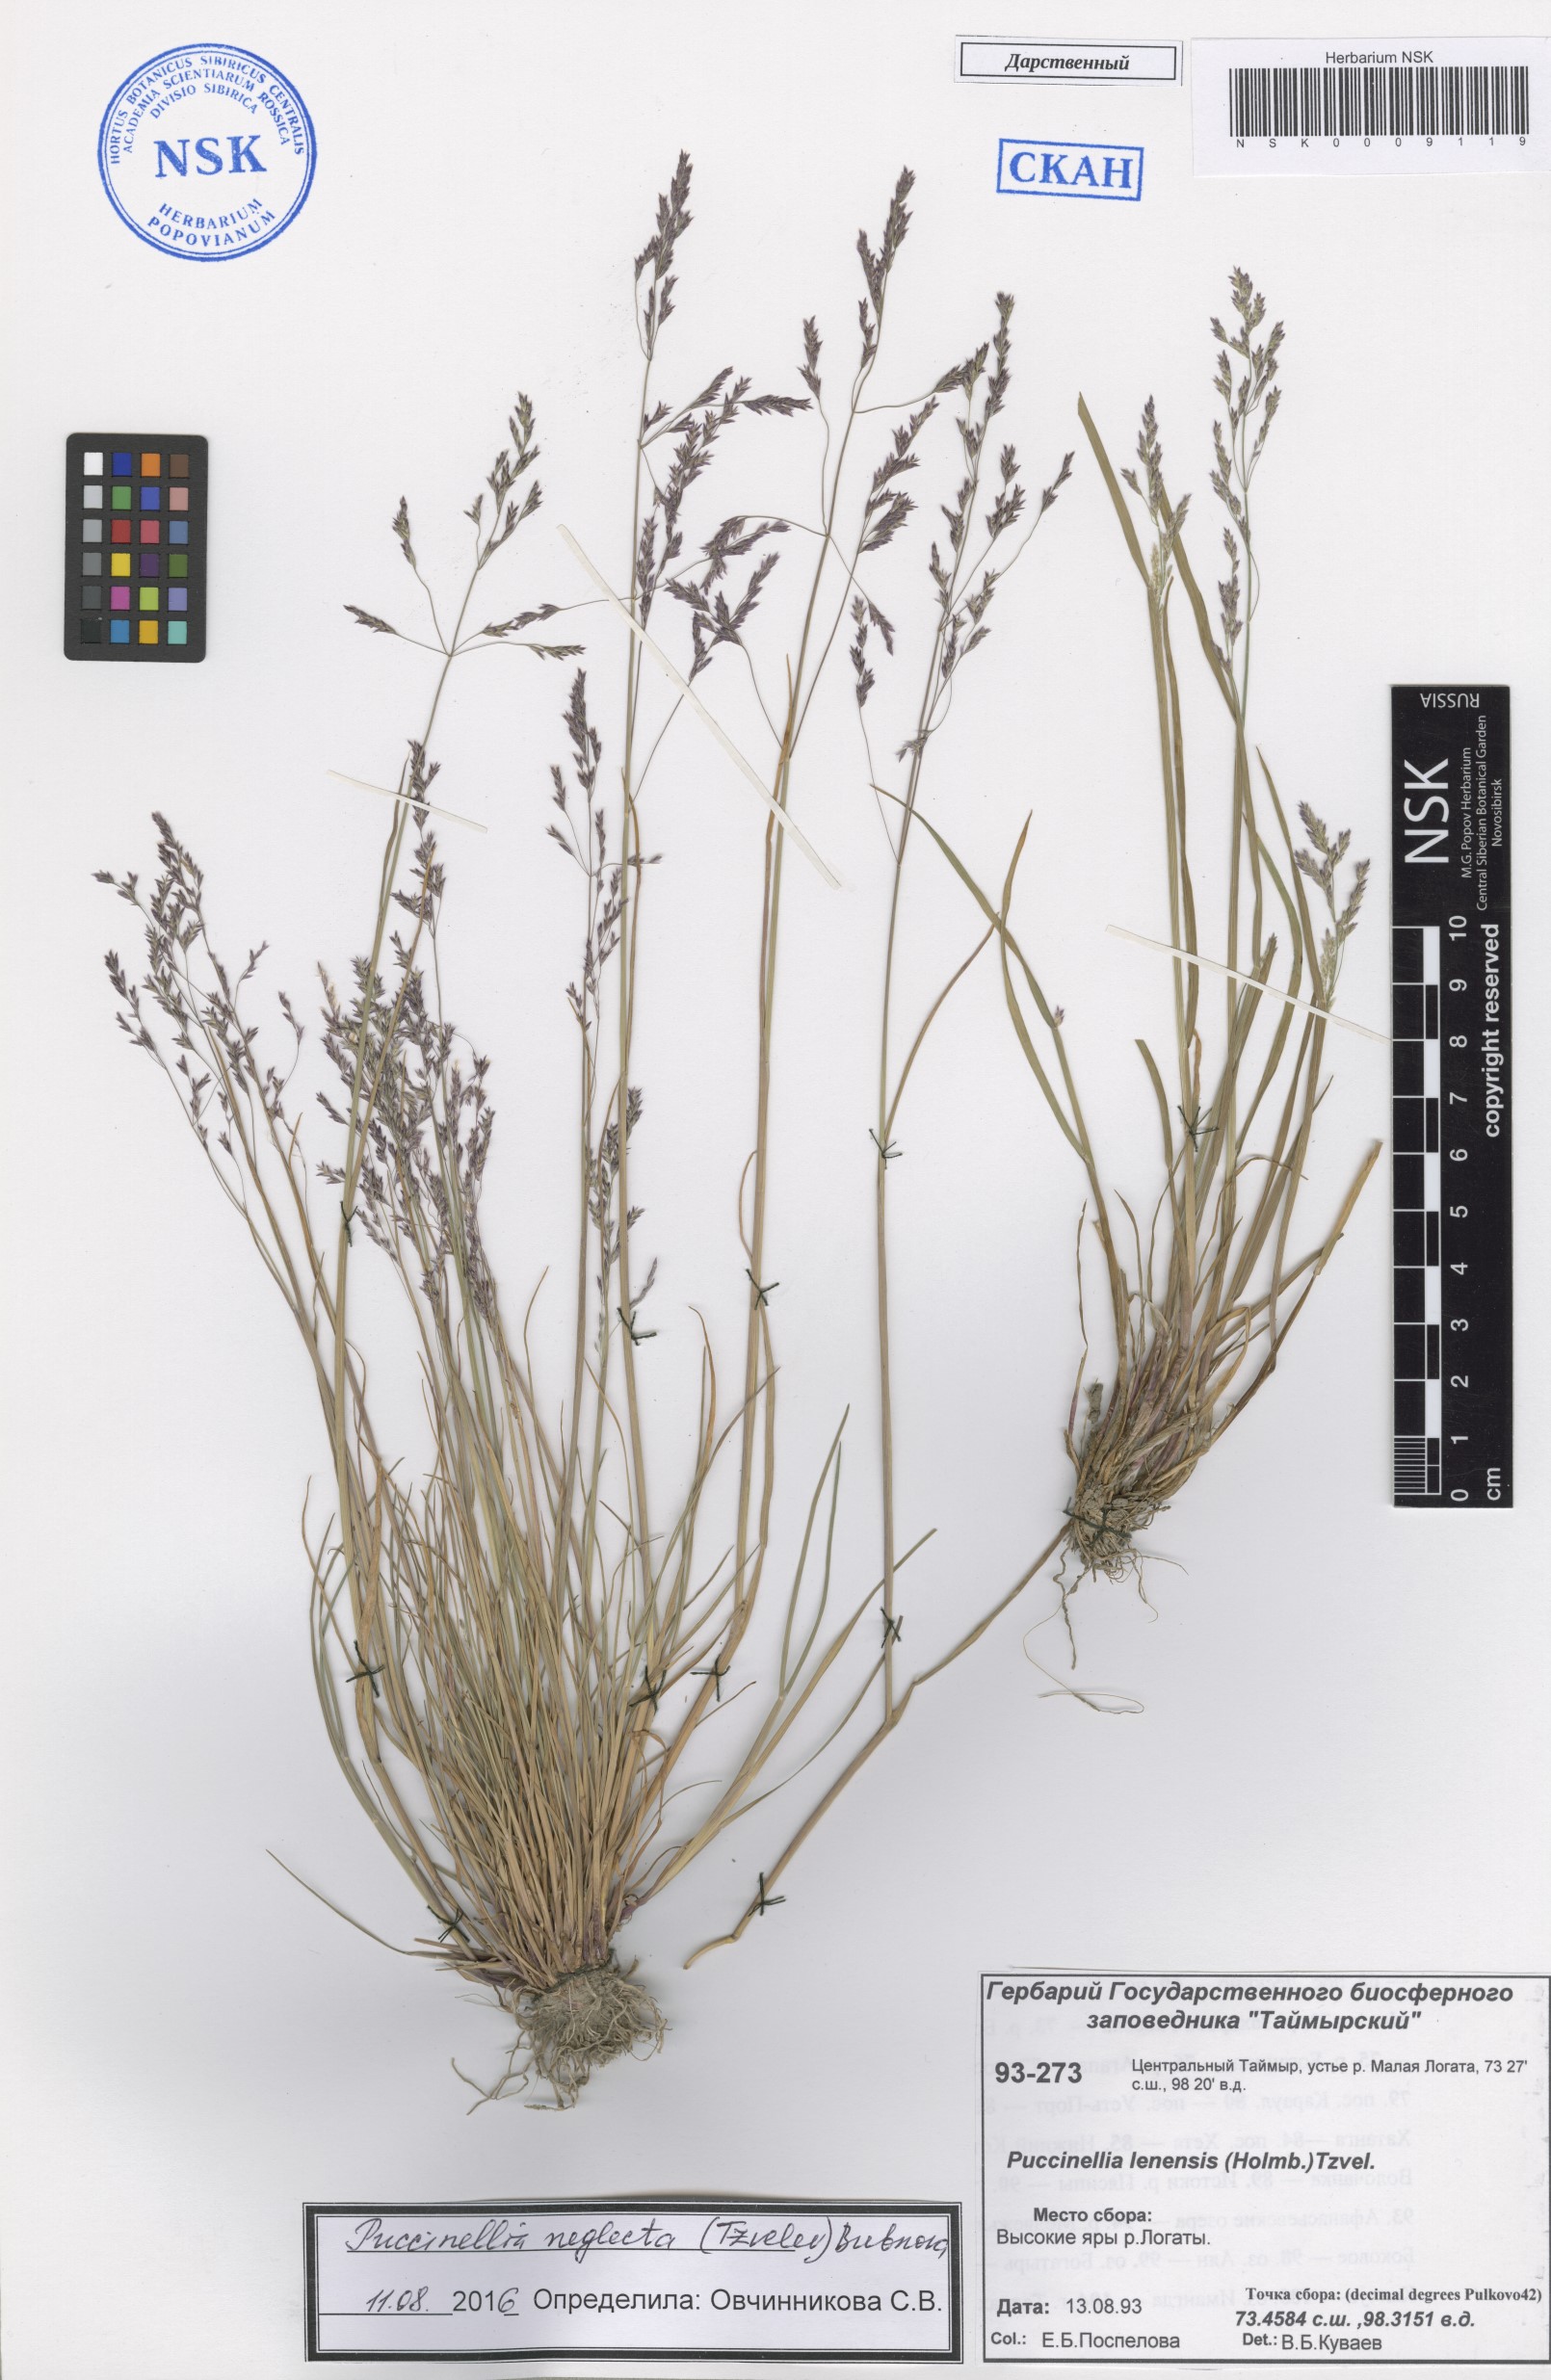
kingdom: Plantae
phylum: Tracheophyta
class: Liliopsida
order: Poales
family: Poaceae
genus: Puccinellia
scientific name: Puccinellia nuttalliana
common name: Nuttall's alkali grass
